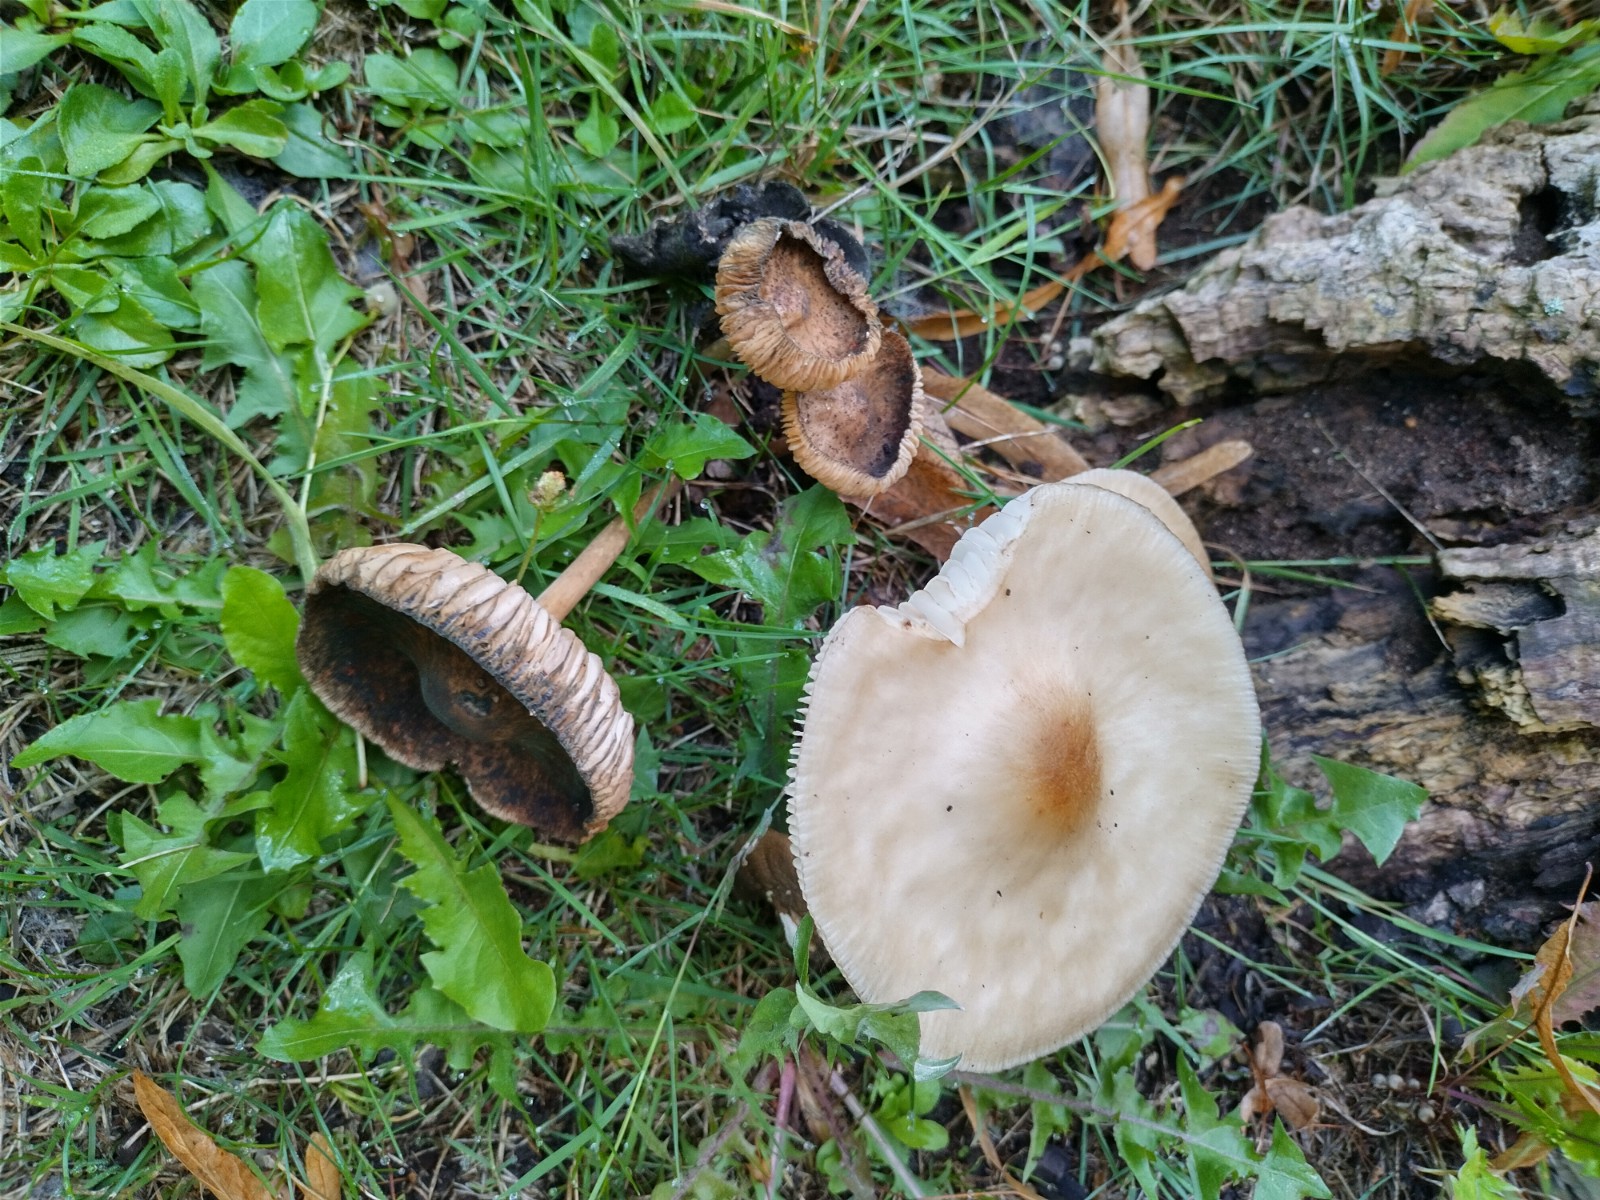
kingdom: Fungi
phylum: Basidiomycota
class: Agaricomycetes
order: Agaricales
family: Physalacriaceae
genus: Hymenopellis
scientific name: Hymenopellis radicata
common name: almindelig pælerodshat
